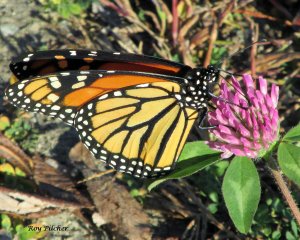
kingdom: Animalia
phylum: Arthropoda
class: Insecta
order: Lepidoptera
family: Nymphalidae
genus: Danaus
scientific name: Danaus plexippus
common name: Monarch
